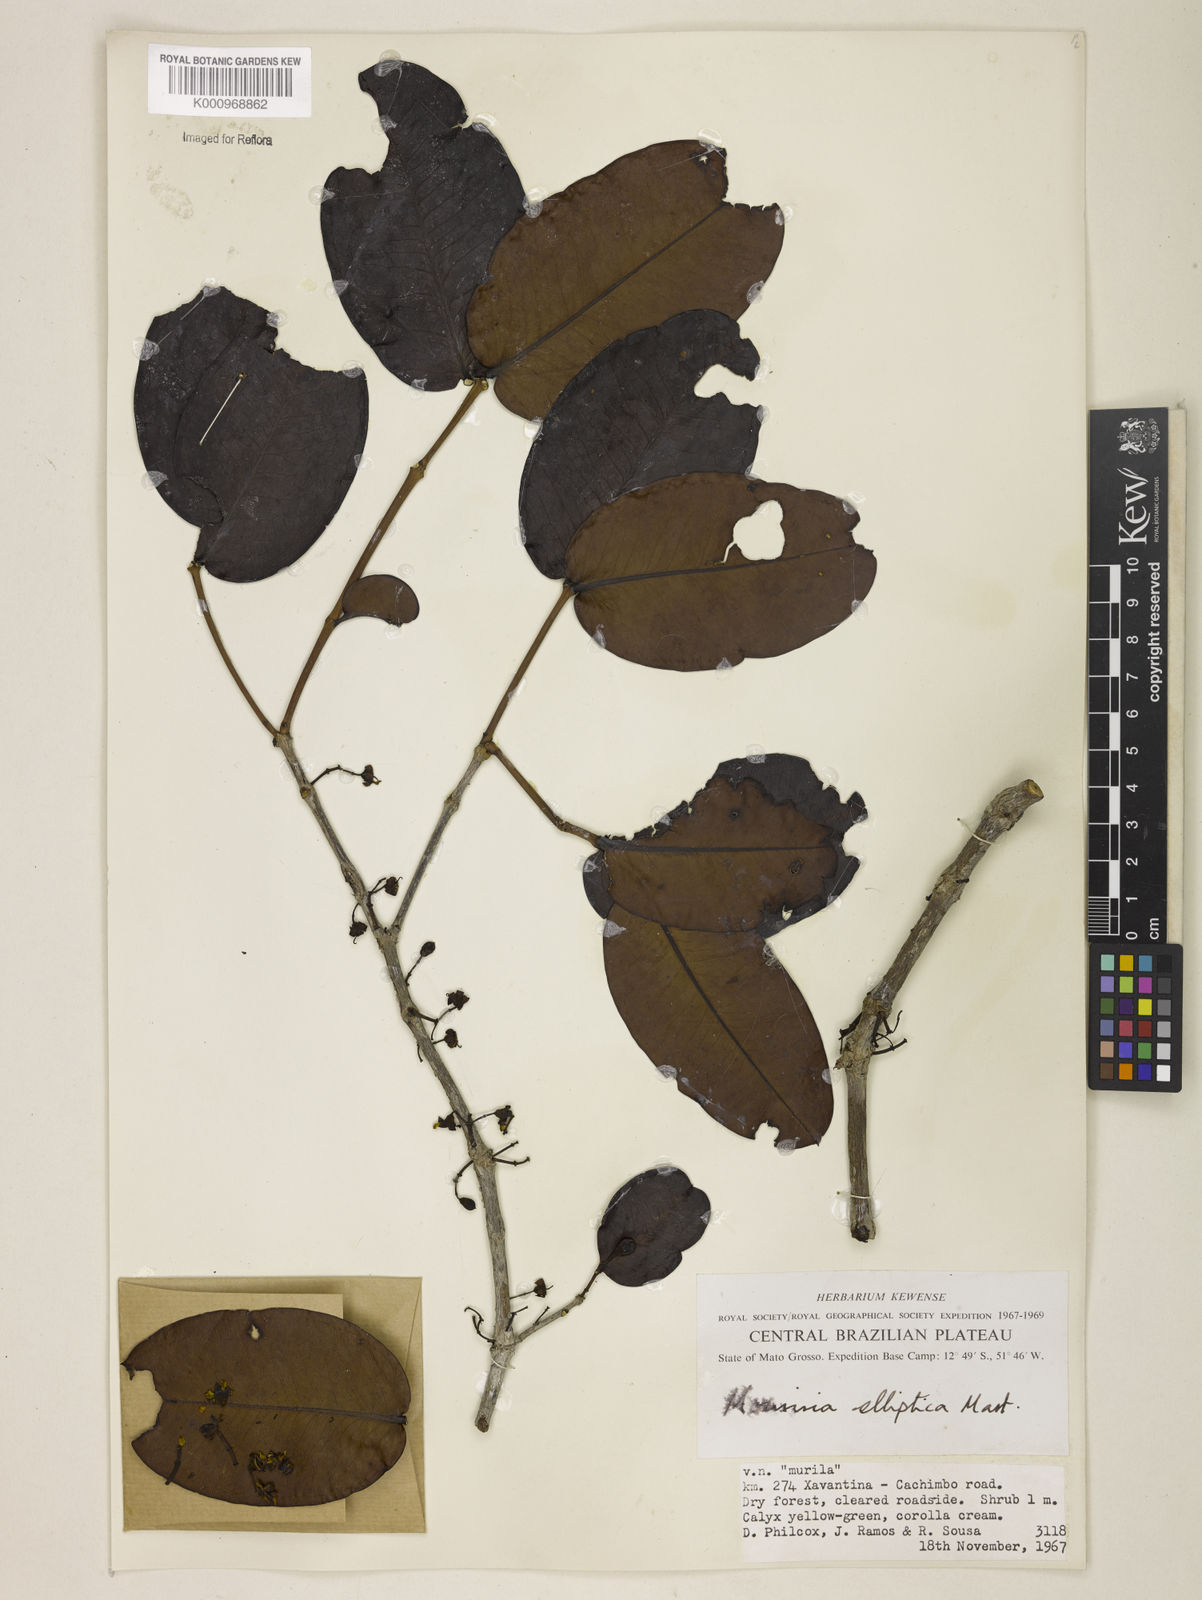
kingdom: Plantae
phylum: Tracheophyta
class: Magnoliopsida
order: Myrtales
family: Melastomataceae
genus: Mouriri
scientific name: Mouriri elliptica
